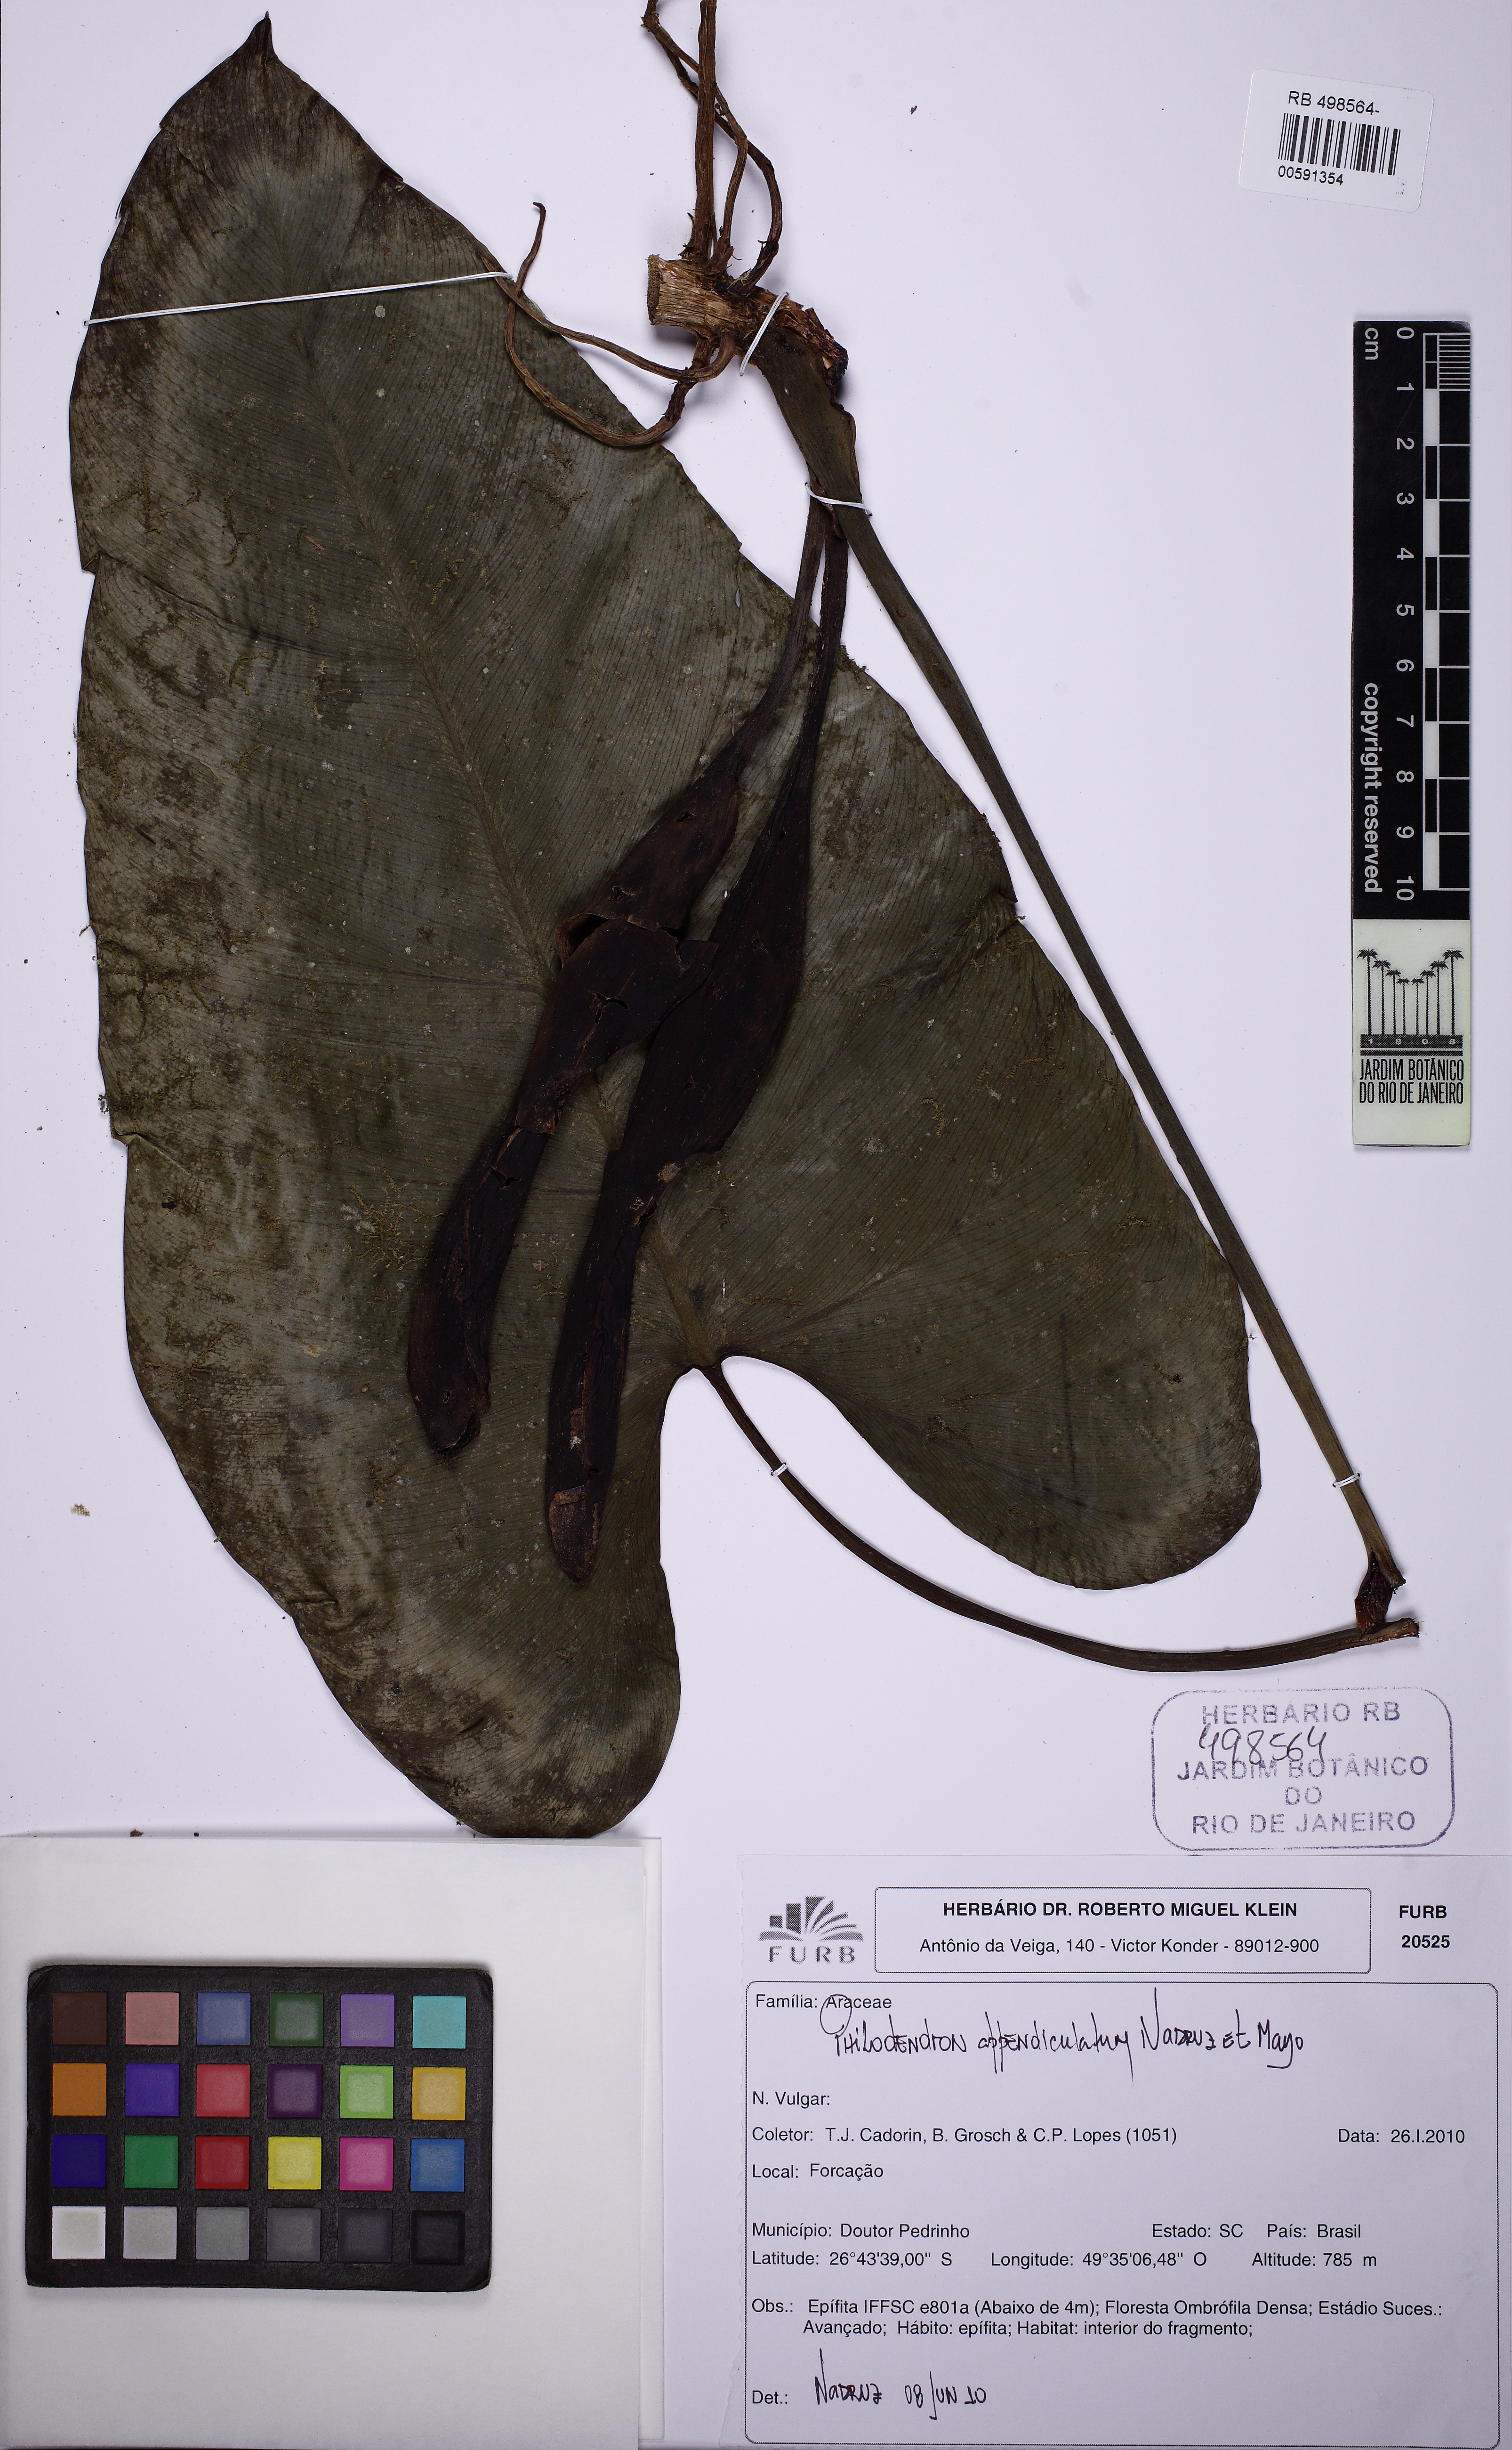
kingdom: Plantae
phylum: Tracheophyta
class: Liliopsida
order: Alismatales
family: Araceae
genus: Philodendron
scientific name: Philodendron appendiculatum
